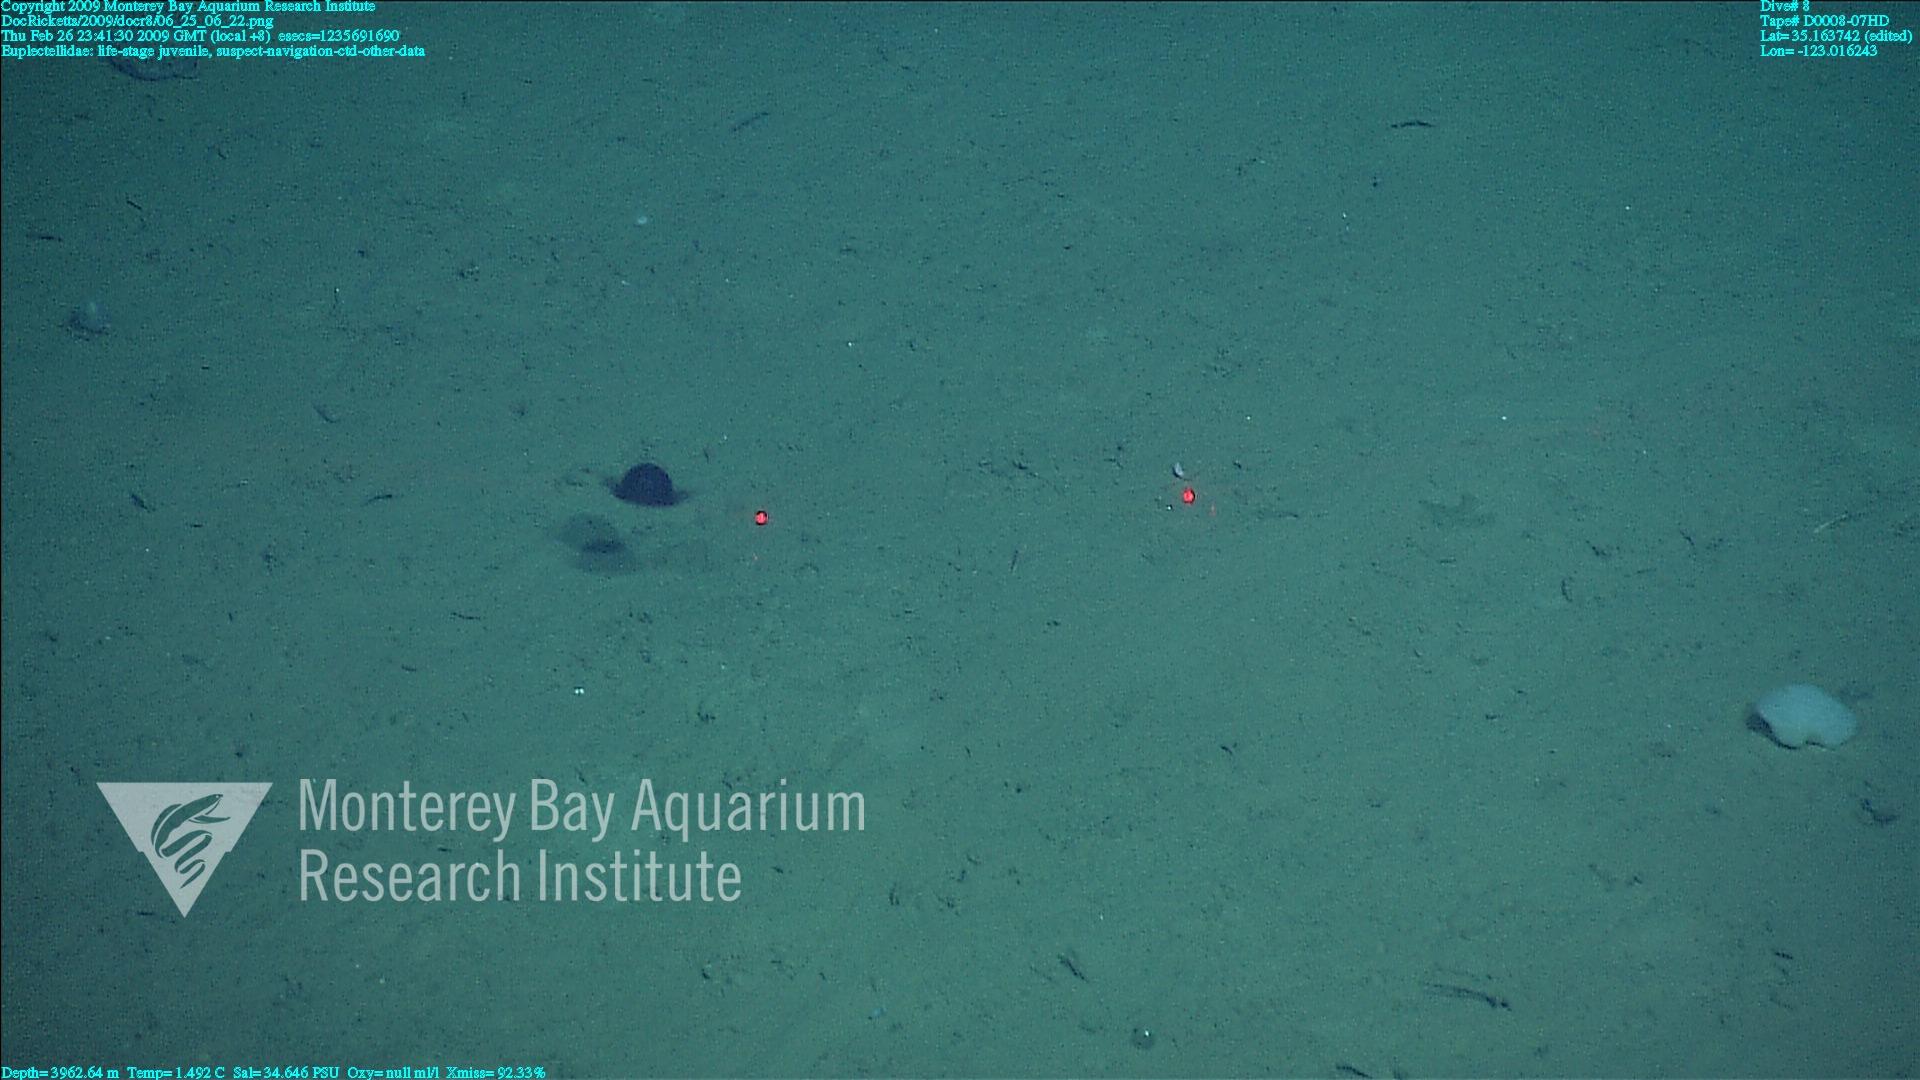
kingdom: Animalia
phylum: Porifera
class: Hexactinellida
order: Lyssacinosida
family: Euplectellidae
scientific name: Euplectellidae
